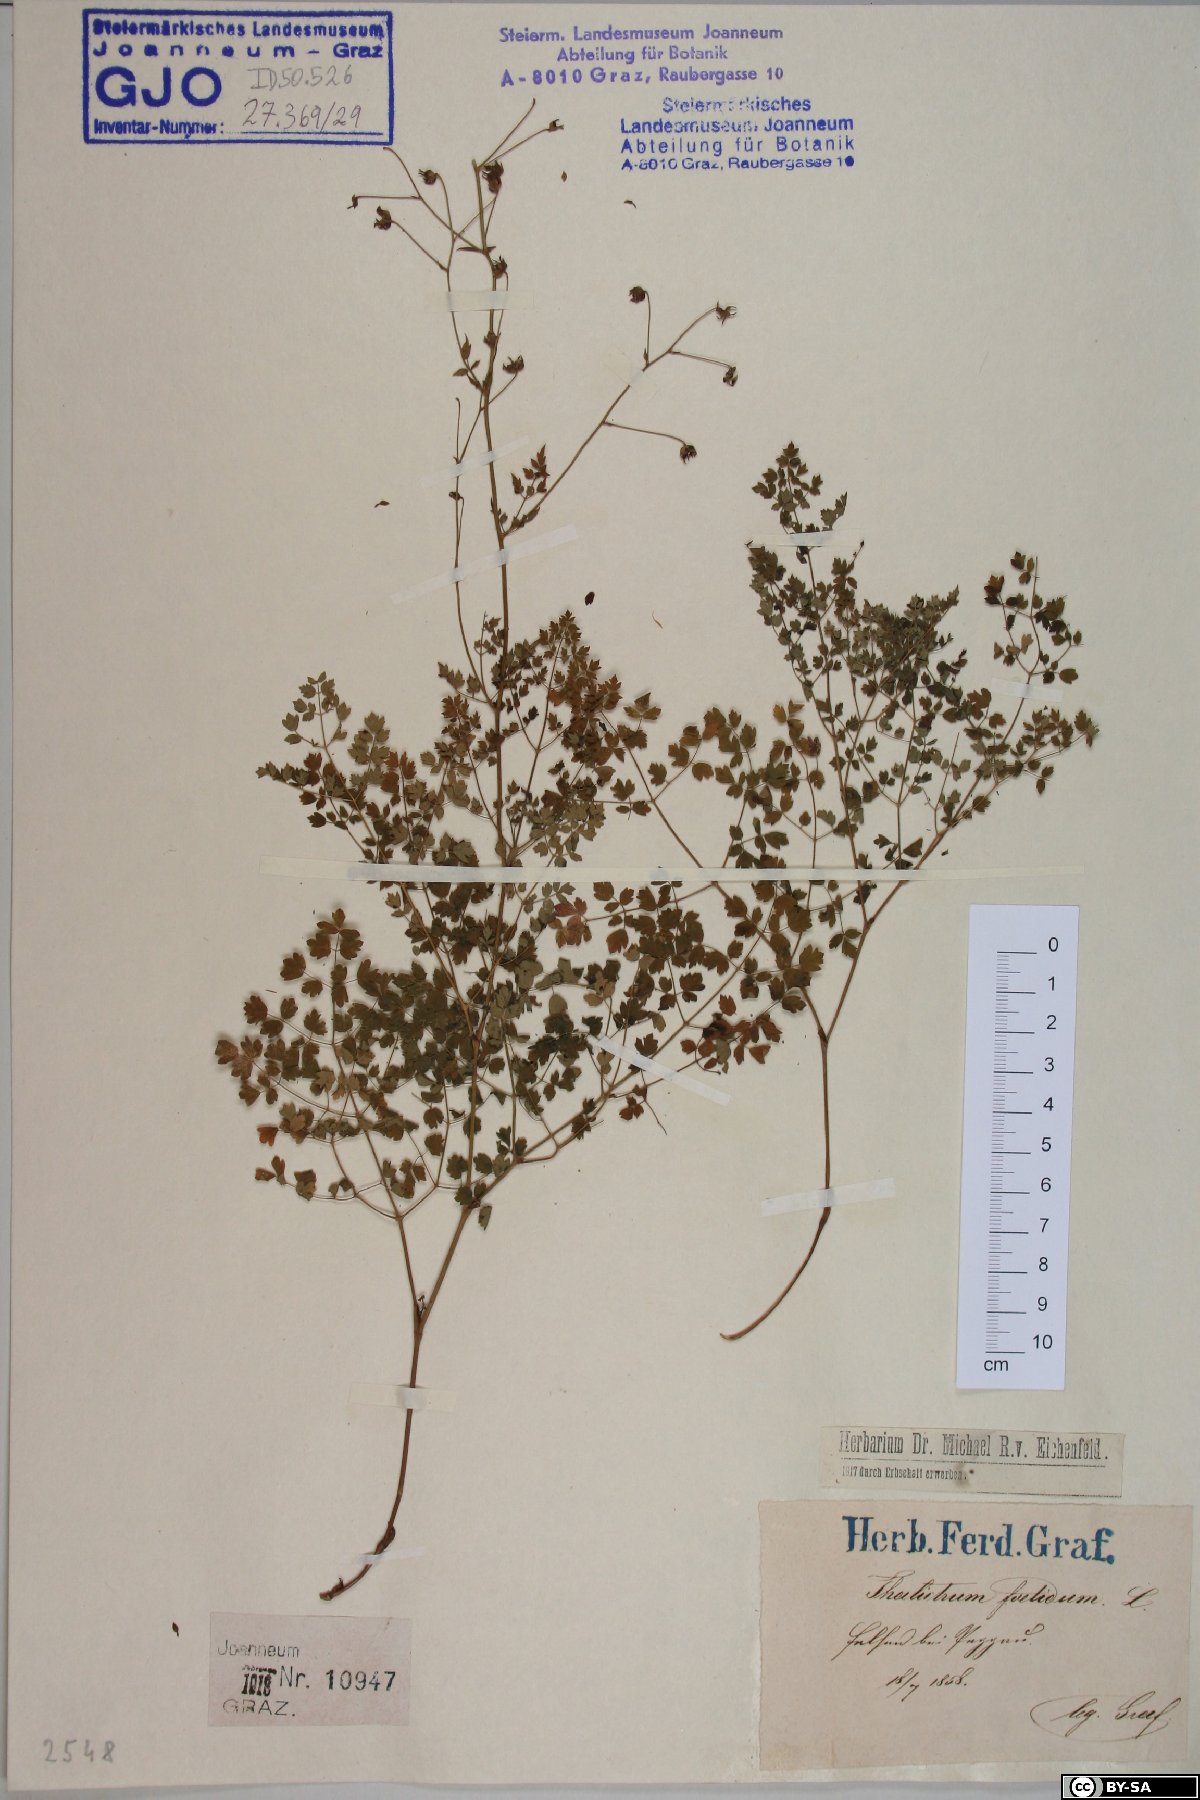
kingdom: Plantae
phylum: Tracheophyta
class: Magnoliopsida
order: Ranunculales
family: Ranunculaceae
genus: Thalictrum
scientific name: Thalictrum foetidum
